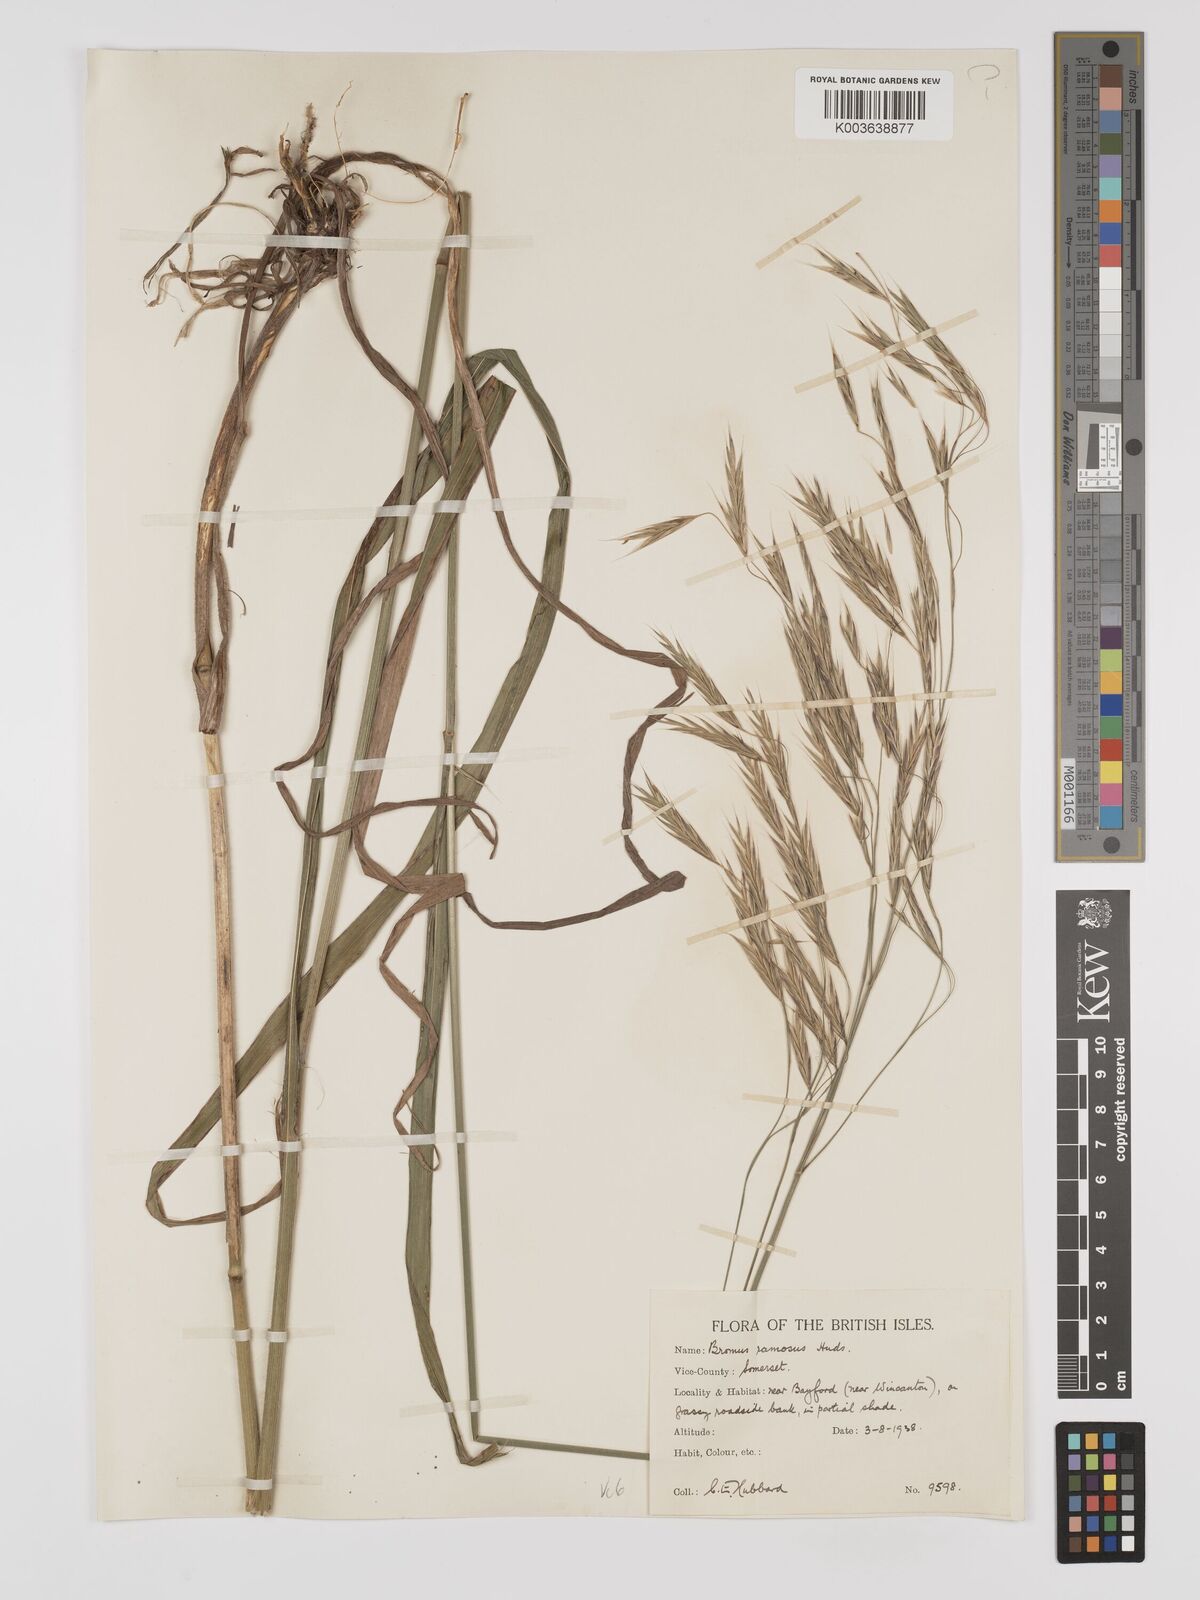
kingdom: Plantae
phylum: Tracheophyta
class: Liliopsida
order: Poales
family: Poaceae
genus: Brachypodium
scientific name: Brachypodium retusum
